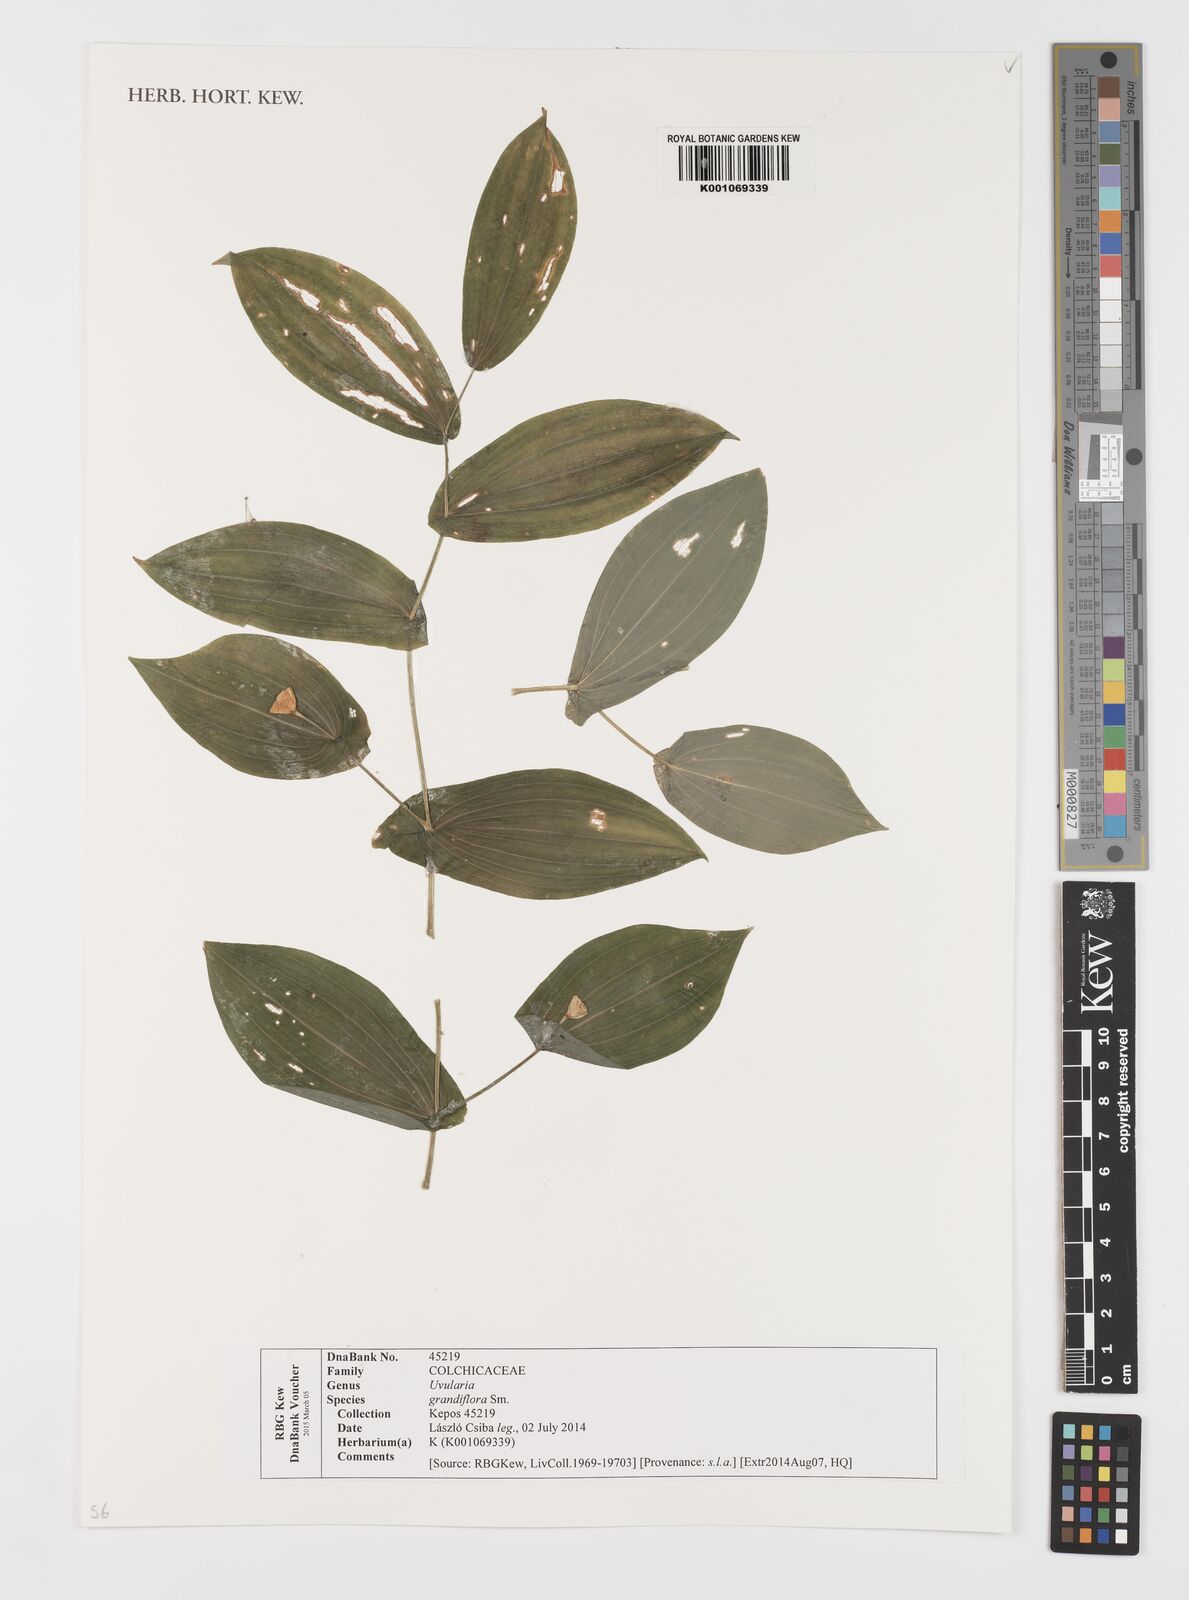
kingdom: Plantae
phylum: Tracheophyta
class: Liliopsida
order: Liliales
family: Colchicaceae
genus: Uvularia
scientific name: Uvularia grandiflora
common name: Bellwort
